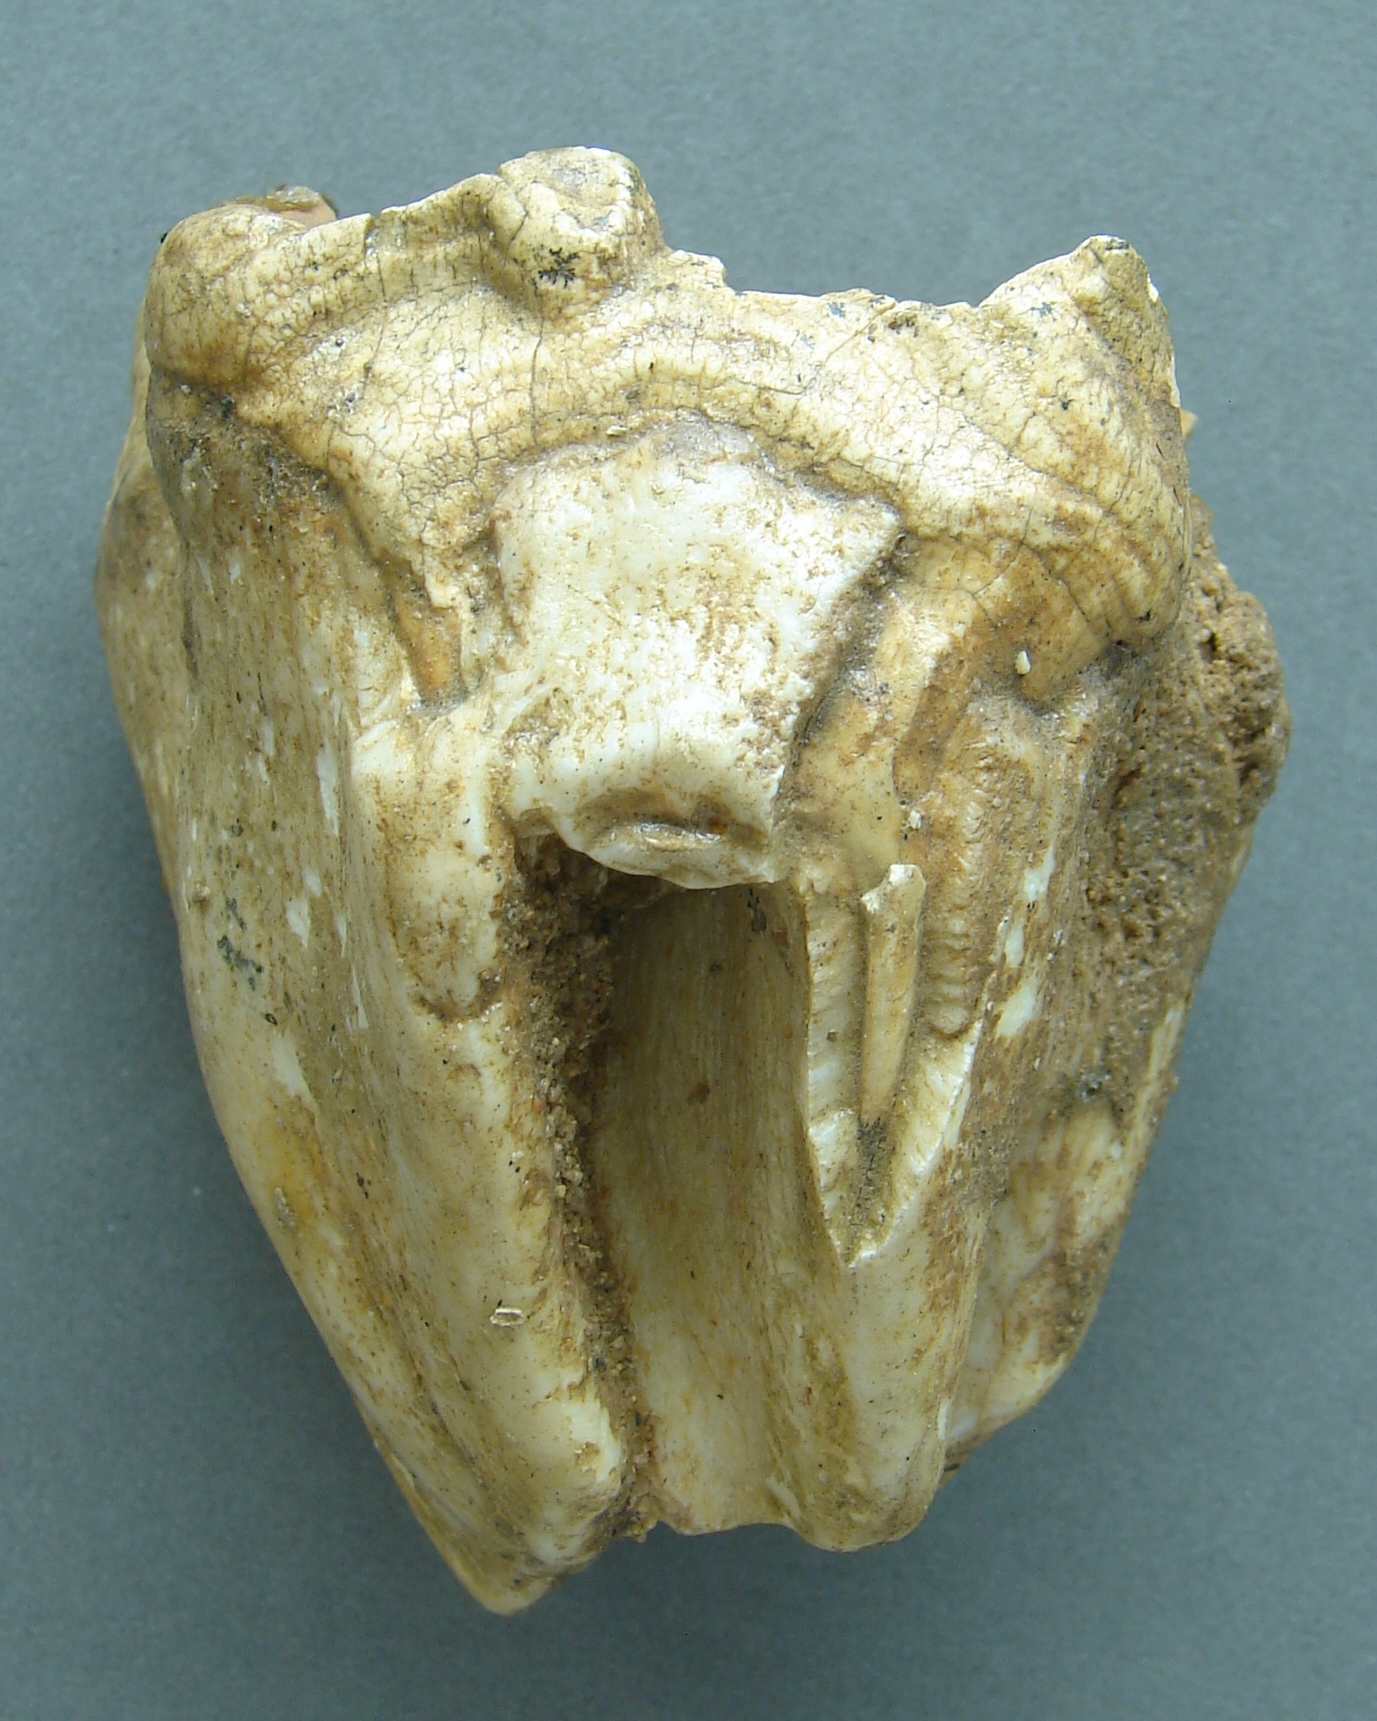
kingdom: Animalia
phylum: Chordata
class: Mammalia
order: Perissodactyla
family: Rhinocerotidae
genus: Rhinoceros
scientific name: Rhinoceros
